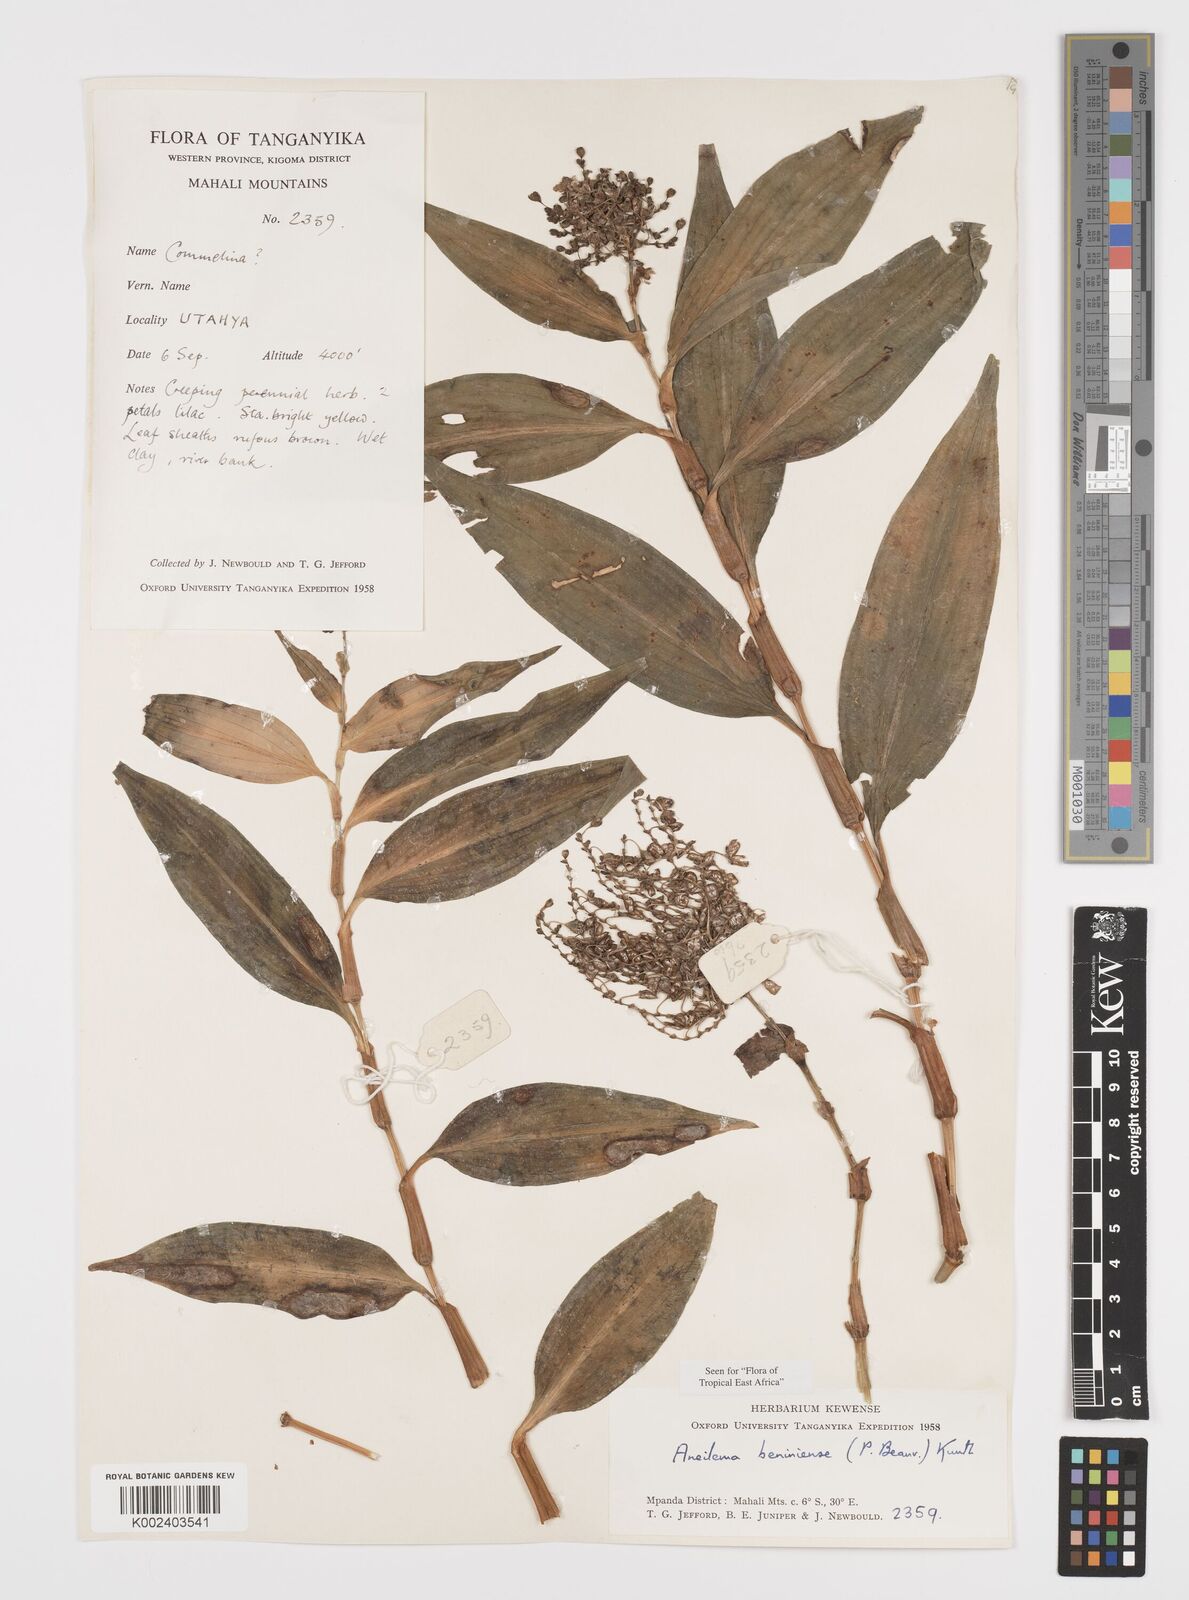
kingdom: Plantae
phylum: Tracheophyta
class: Liliopsida
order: Commelinales
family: Commelinaceae
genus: Aneilema
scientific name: Aneilema beniniense
